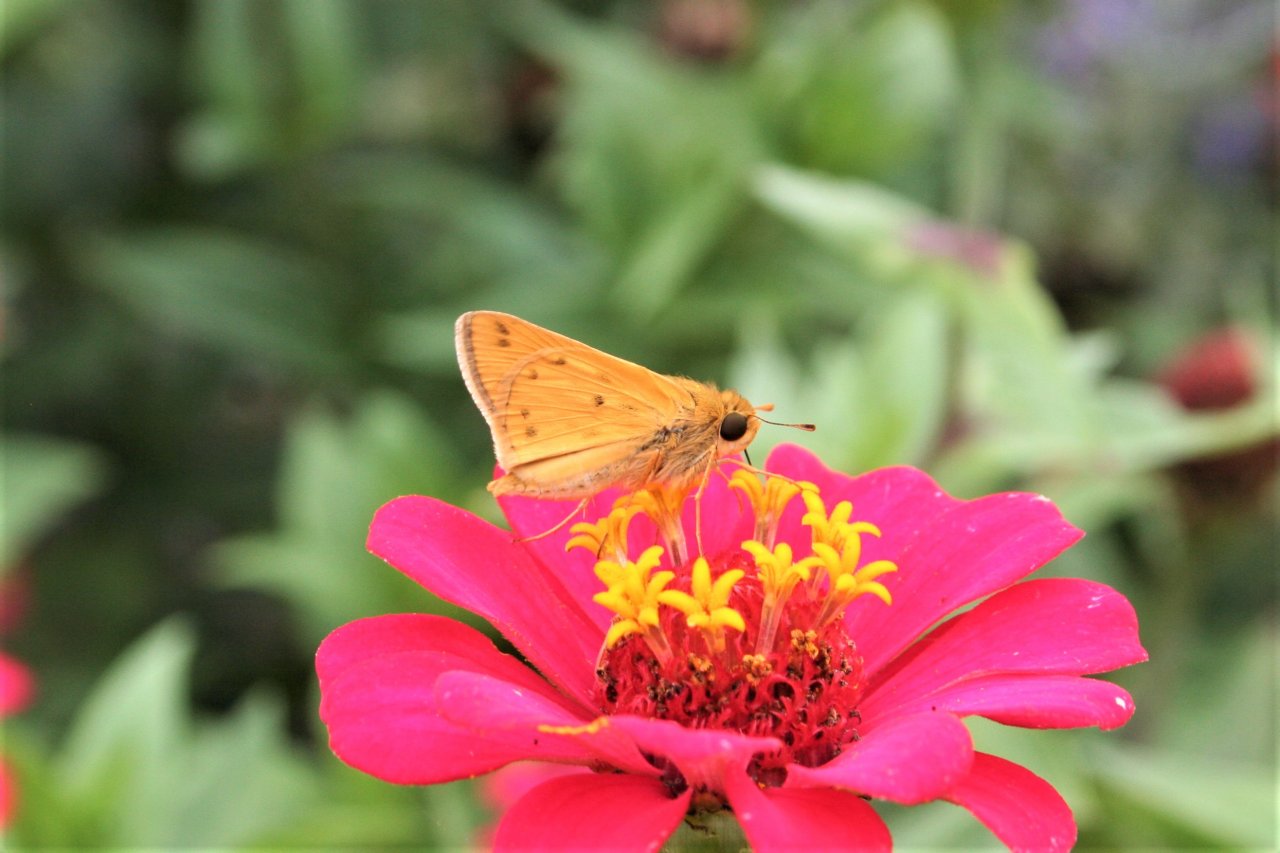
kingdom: Animalia
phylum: Arthropoda
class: Insecta
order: Lepidoptera
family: Hesperiidae
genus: Hylephila
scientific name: Hylephila phyleus
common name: Fiery Skipper
